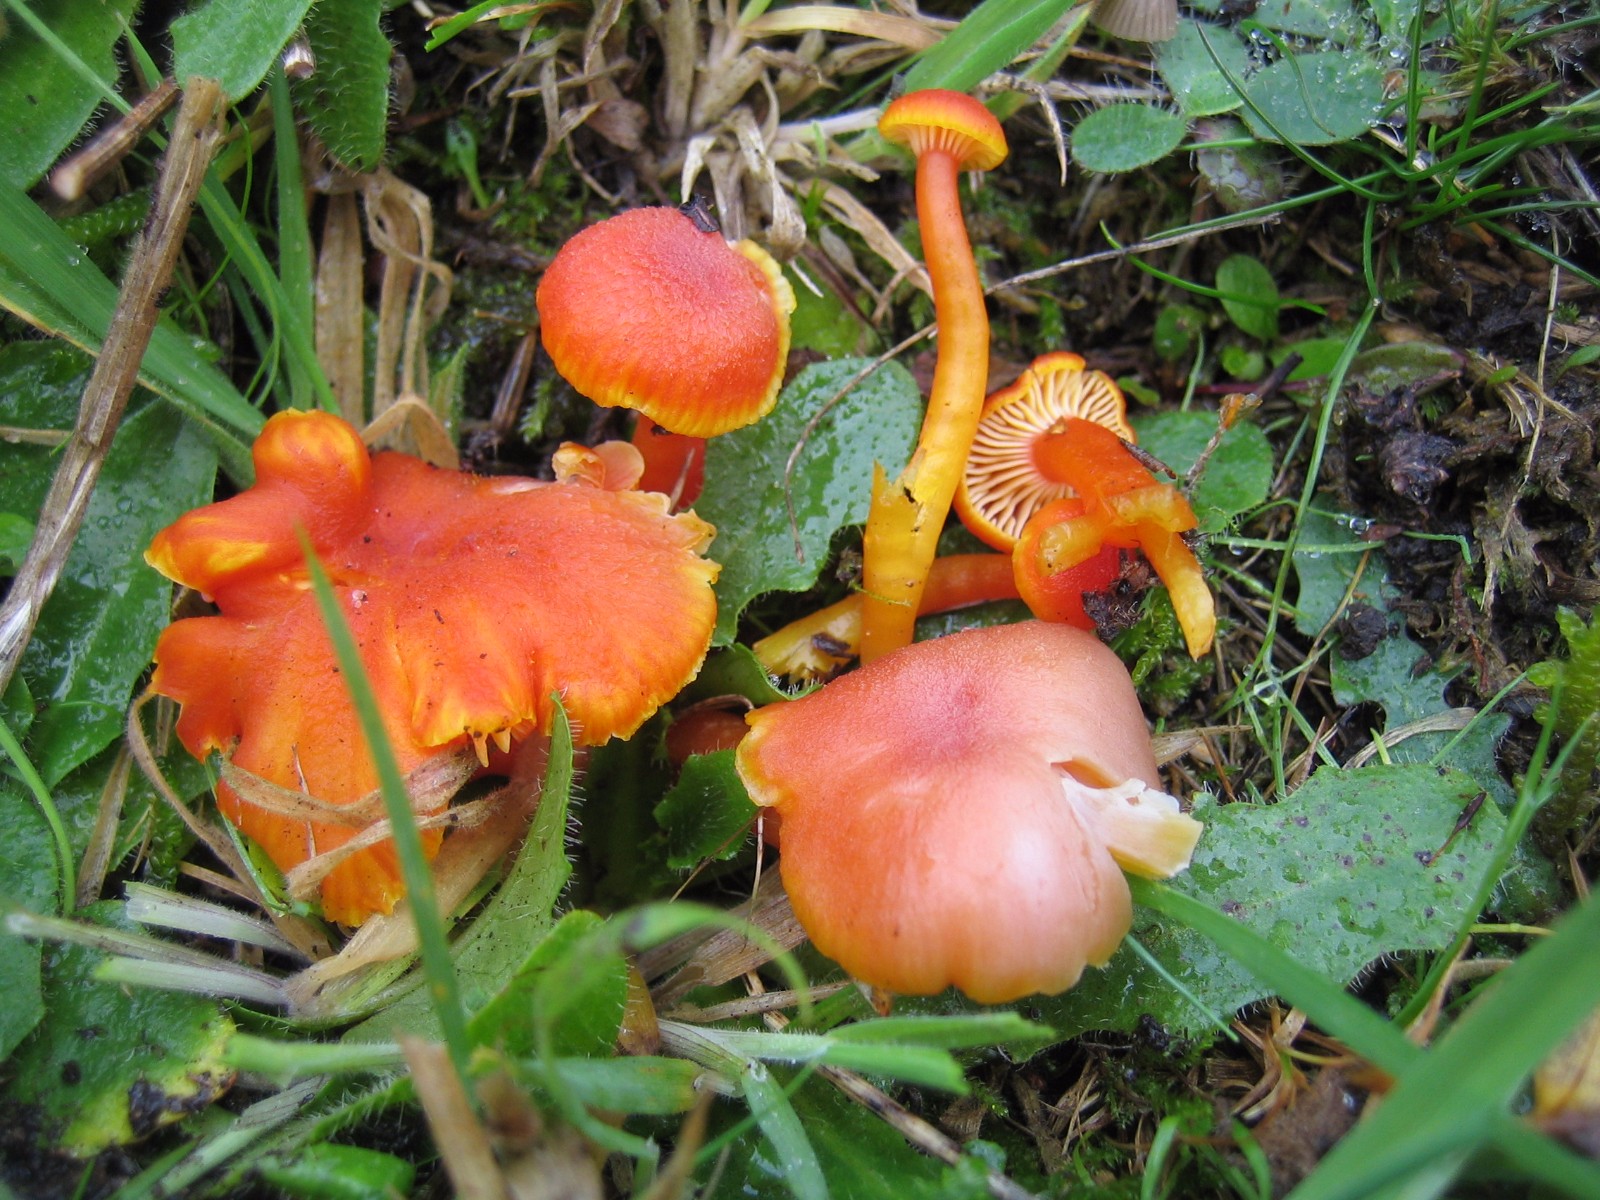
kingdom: Fungi
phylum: Basidiomycota
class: Agaricomycetes
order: Agaricales
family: Hygrophoraceae
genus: Hygrocybe
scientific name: Hygrocybe miniata
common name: mønje-vokshat
